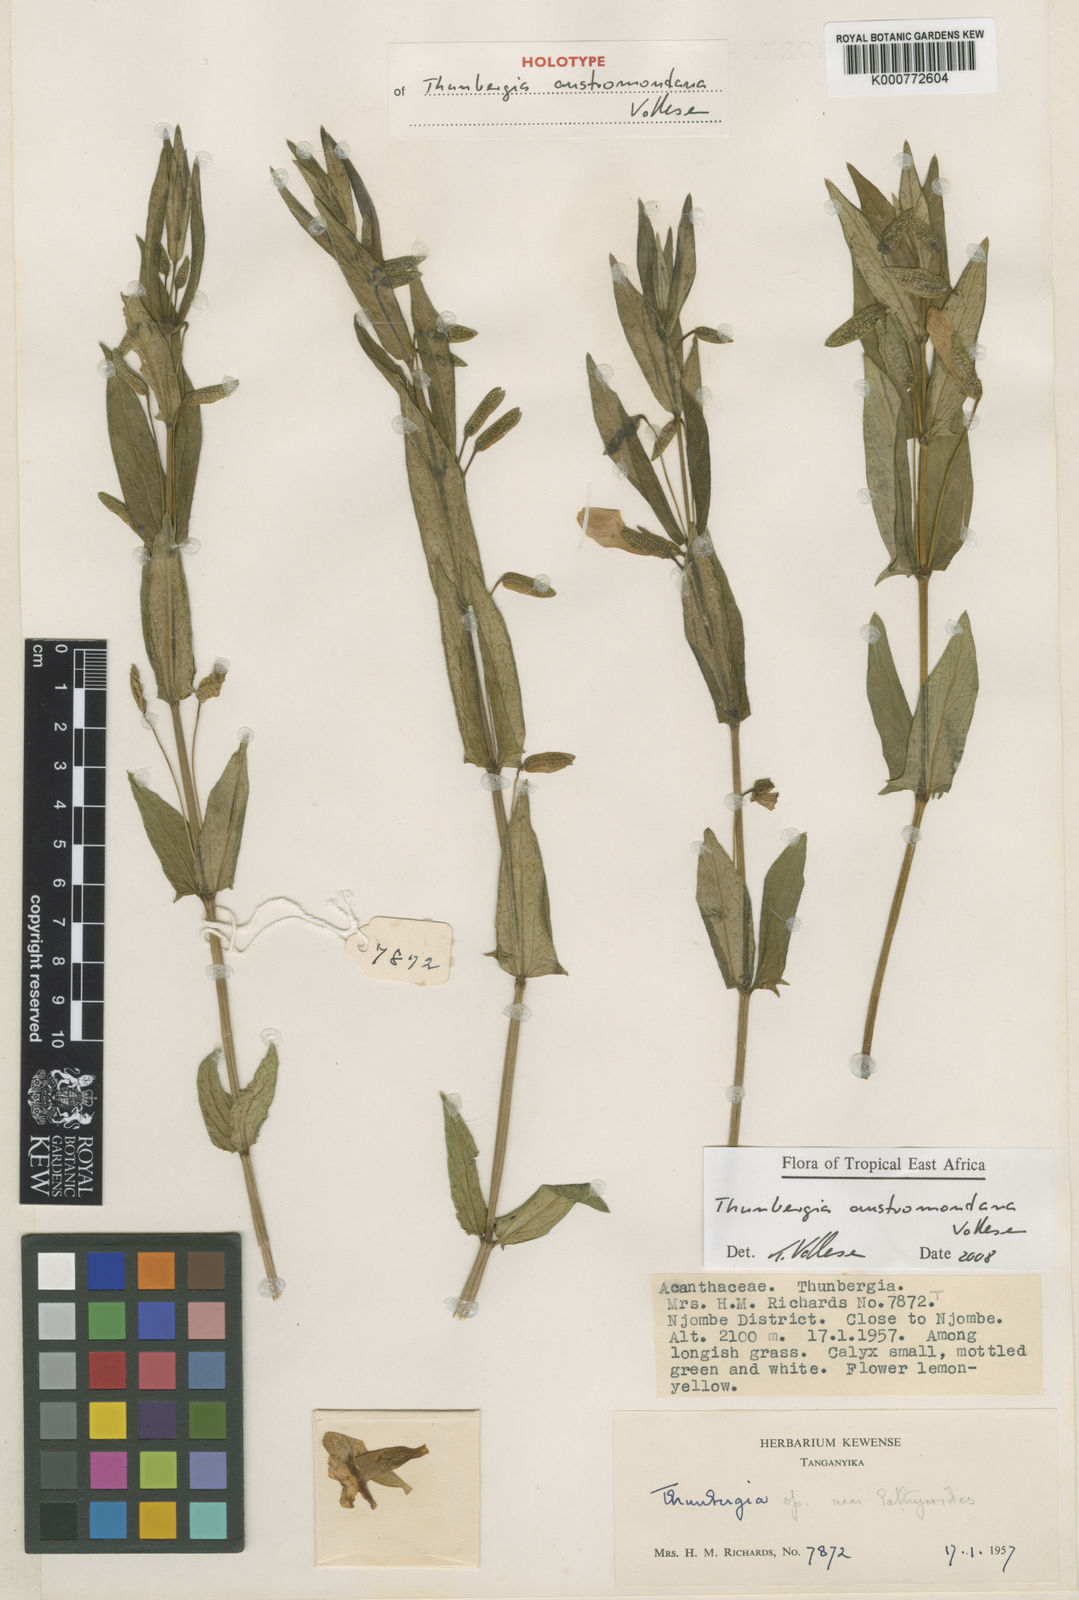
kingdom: Plantae
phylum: Tracheophyta
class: Magnoliopsida
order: Lamiales
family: Acanthaceae
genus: Thunbergia
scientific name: Thunbergia austromontana
